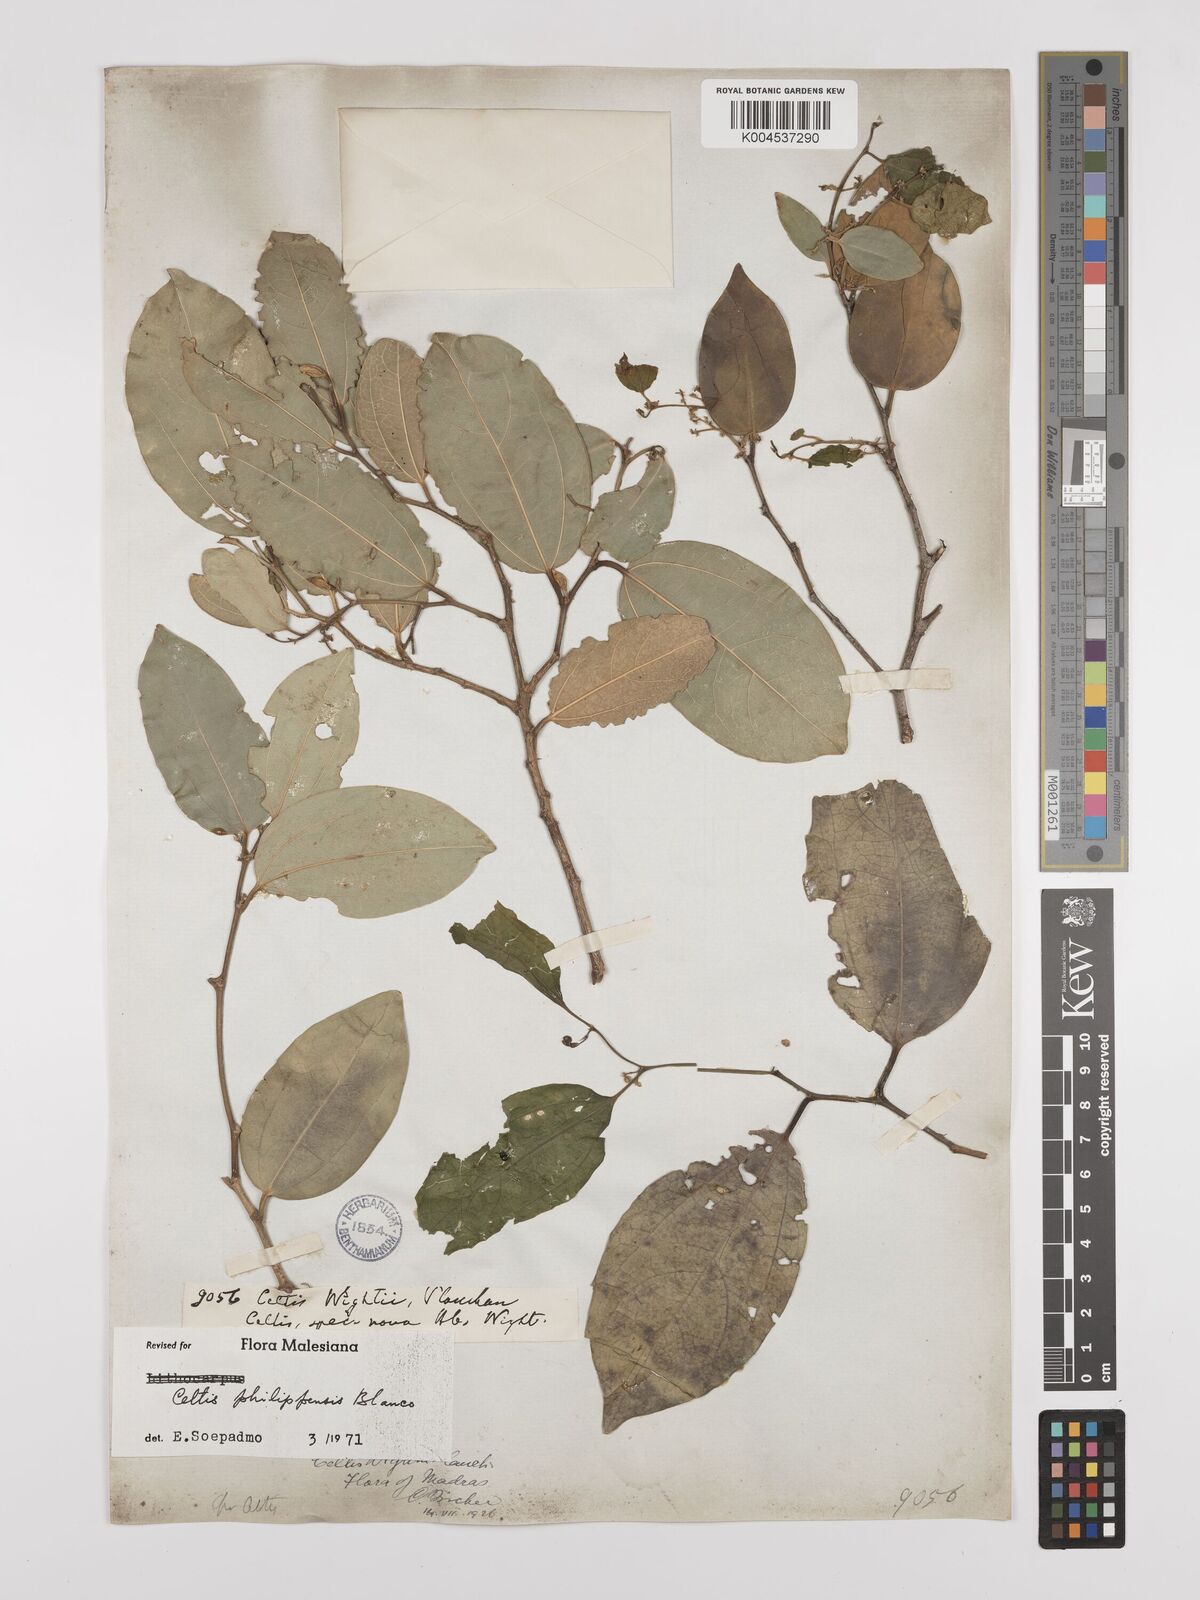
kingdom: Plantae
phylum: Tracheophyta
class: Magnoliopsida
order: Rosales
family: Cannabaceae
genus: Celtis
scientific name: Celtis philippensis
